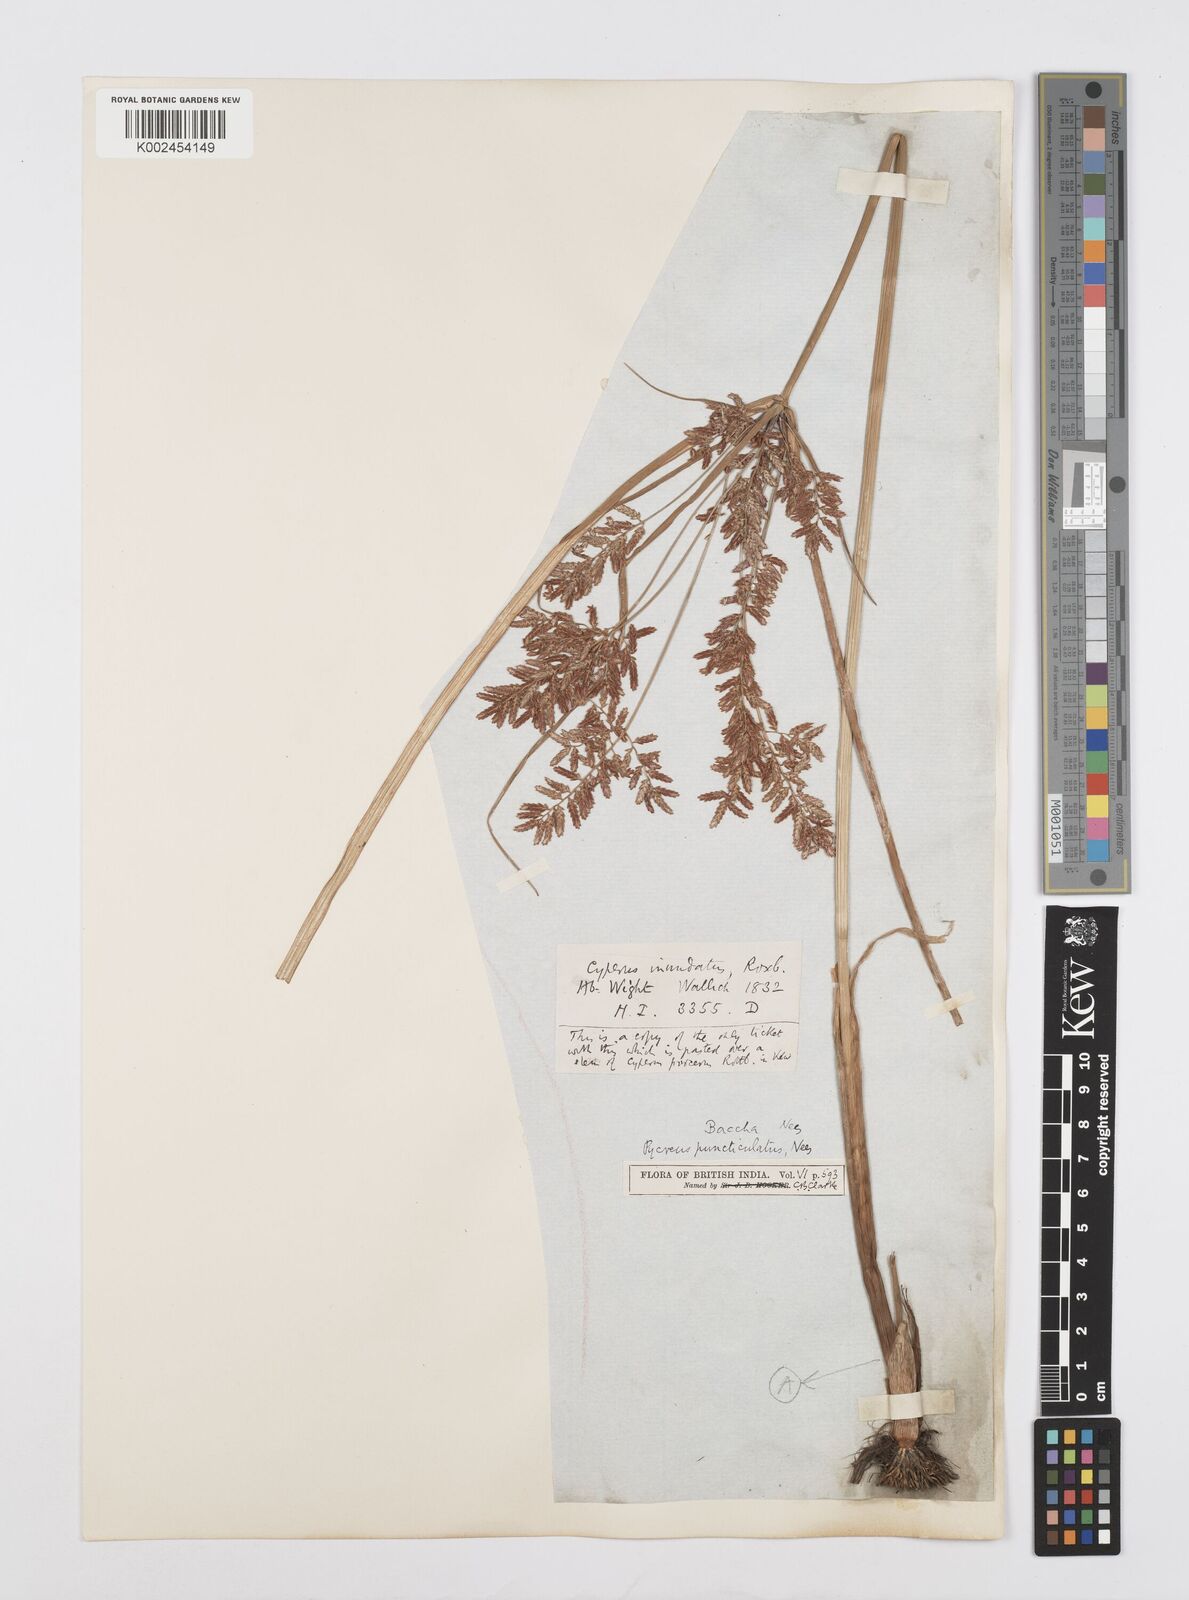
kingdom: Plantae
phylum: Tracheophyta
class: Liliopsida
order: Poales
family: Cyperaceae
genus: Cyperus
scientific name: Cyperus serotinus
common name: Tidalmarsh flatsedge
